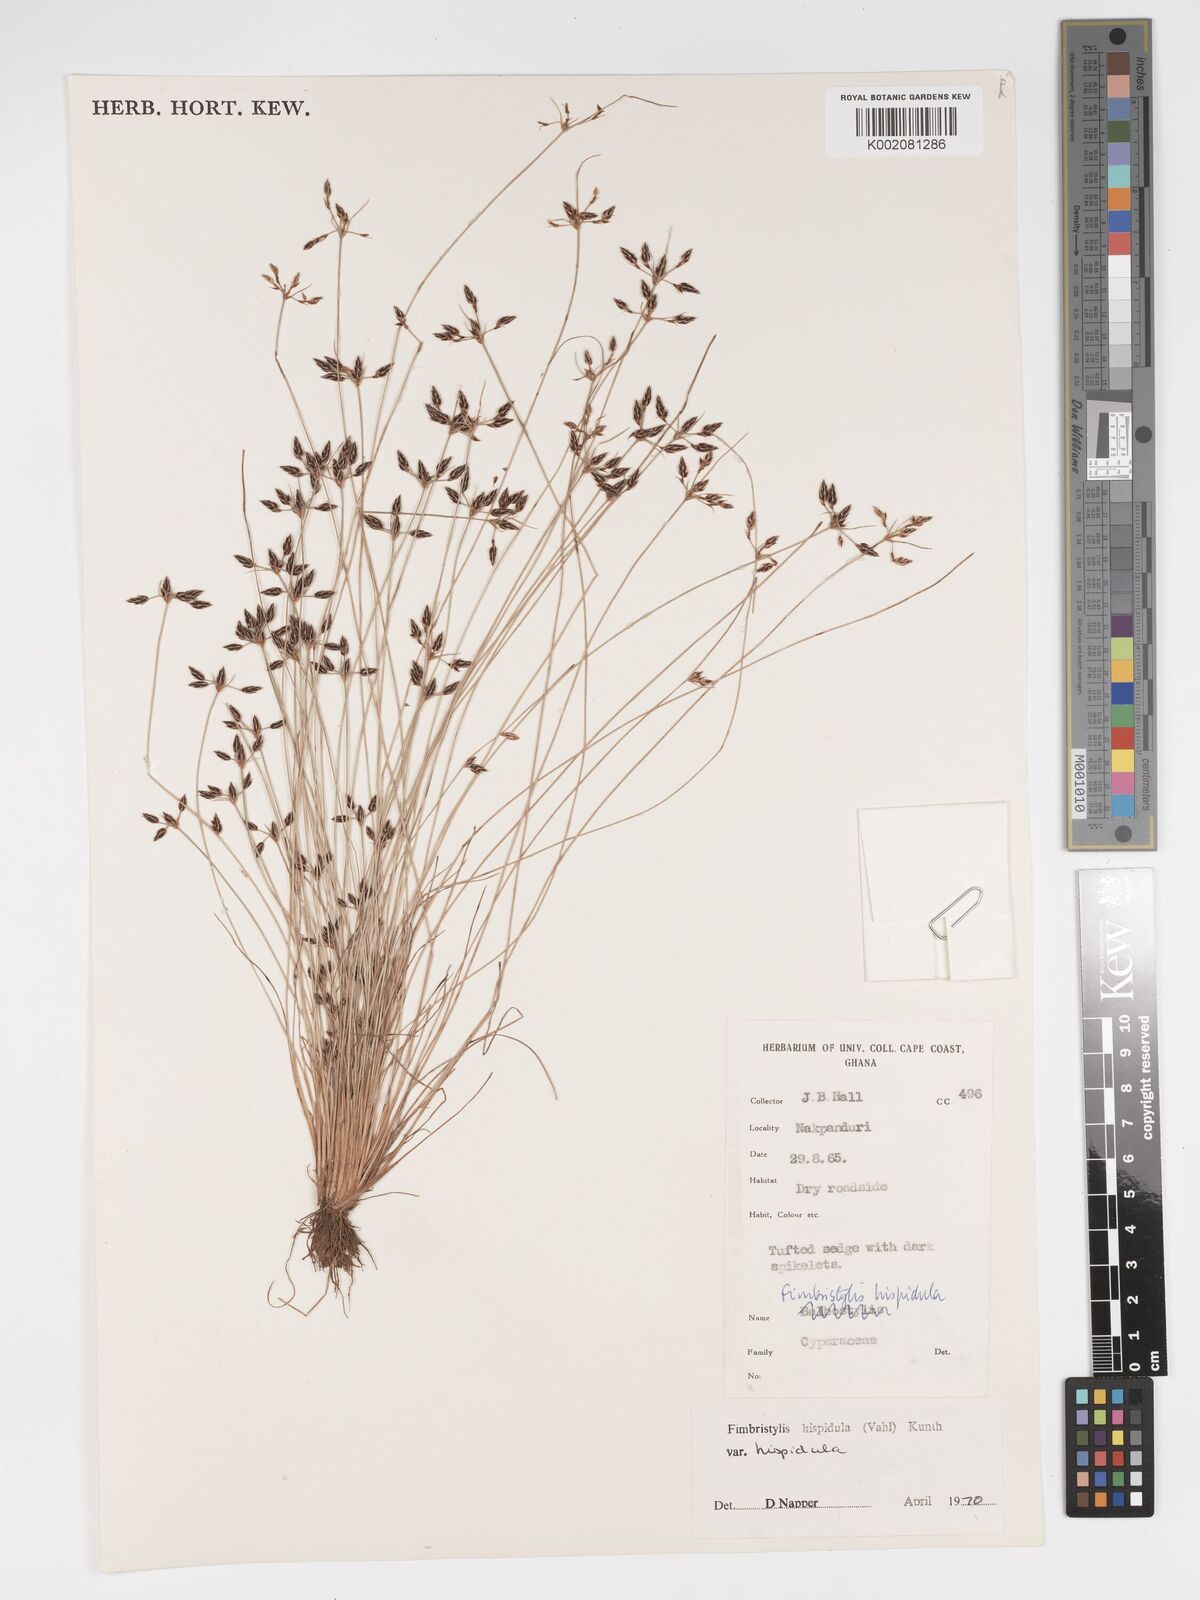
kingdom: Plantae
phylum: Tracheophyta
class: Liliopsida
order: Poales
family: Cyperaceae
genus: Bulbostylis
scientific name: Bulbostylis
